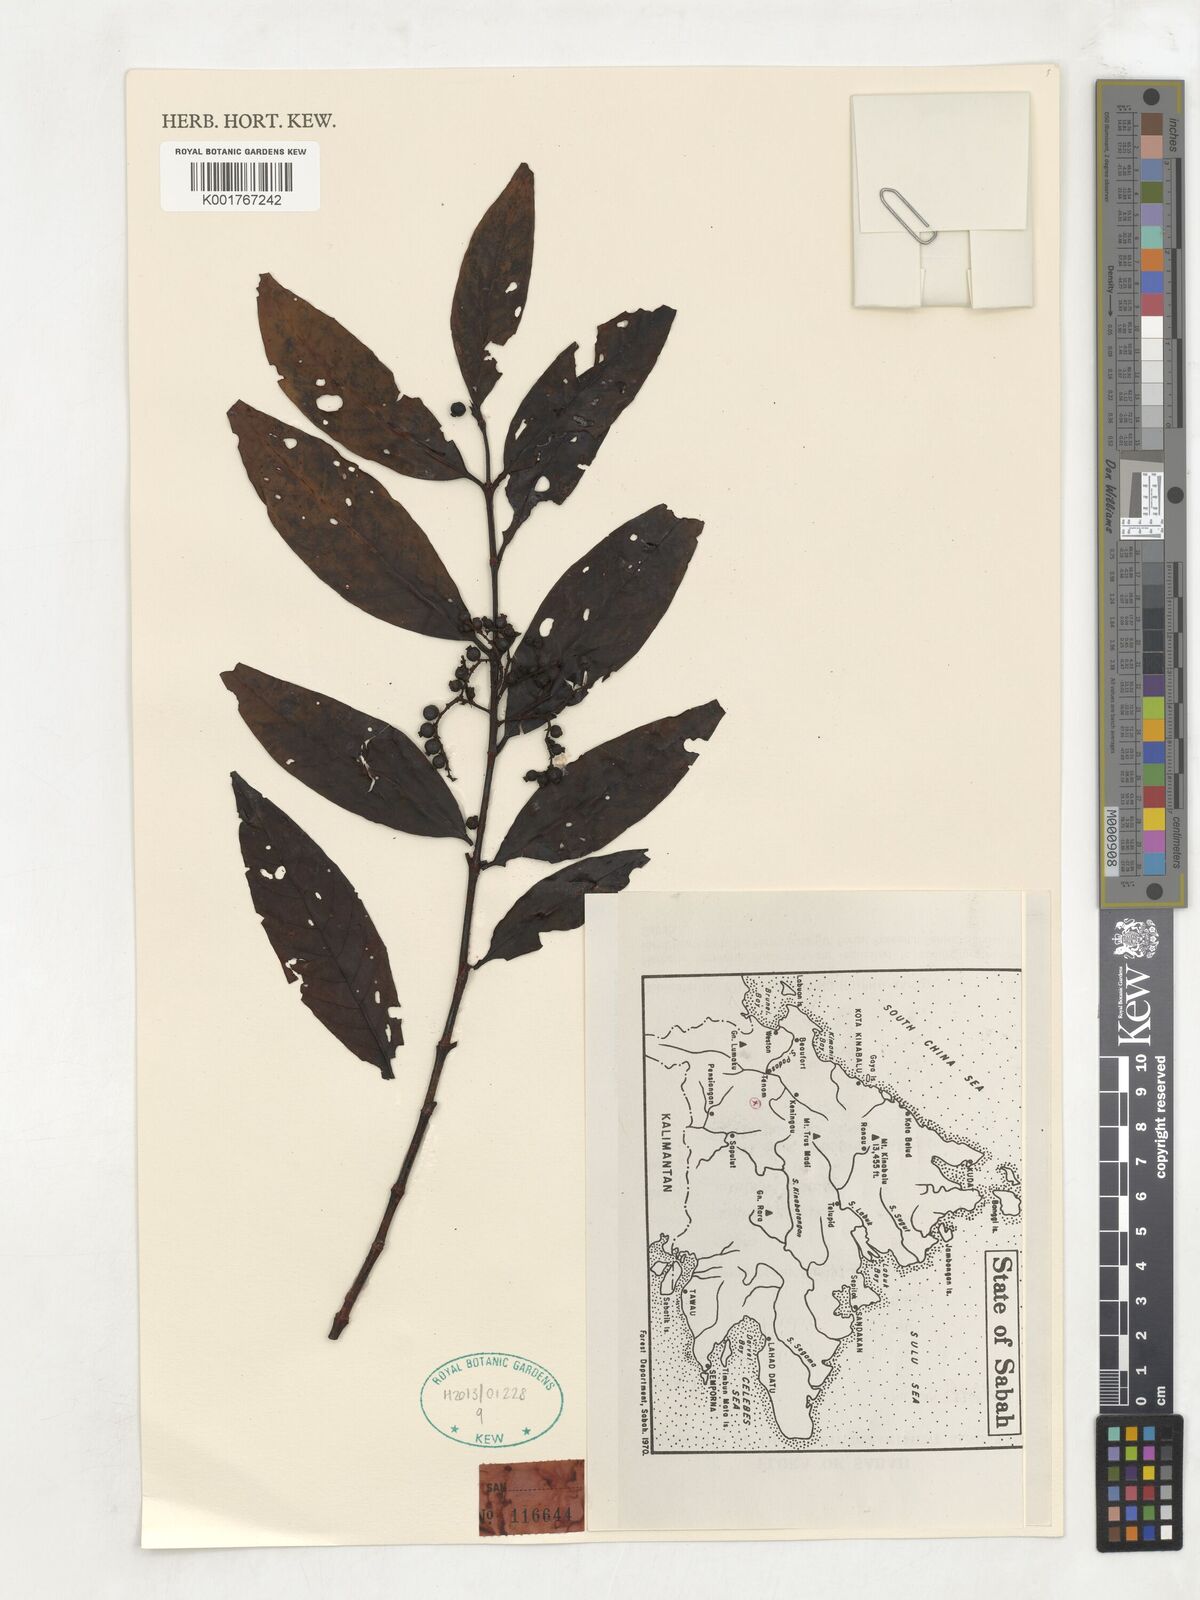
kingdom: Plantae
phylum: Tracheophyta
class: Magnoliopsida
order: Gentianales
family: Rubiaceae
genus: Aidia
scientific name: Aidia corymbosa
